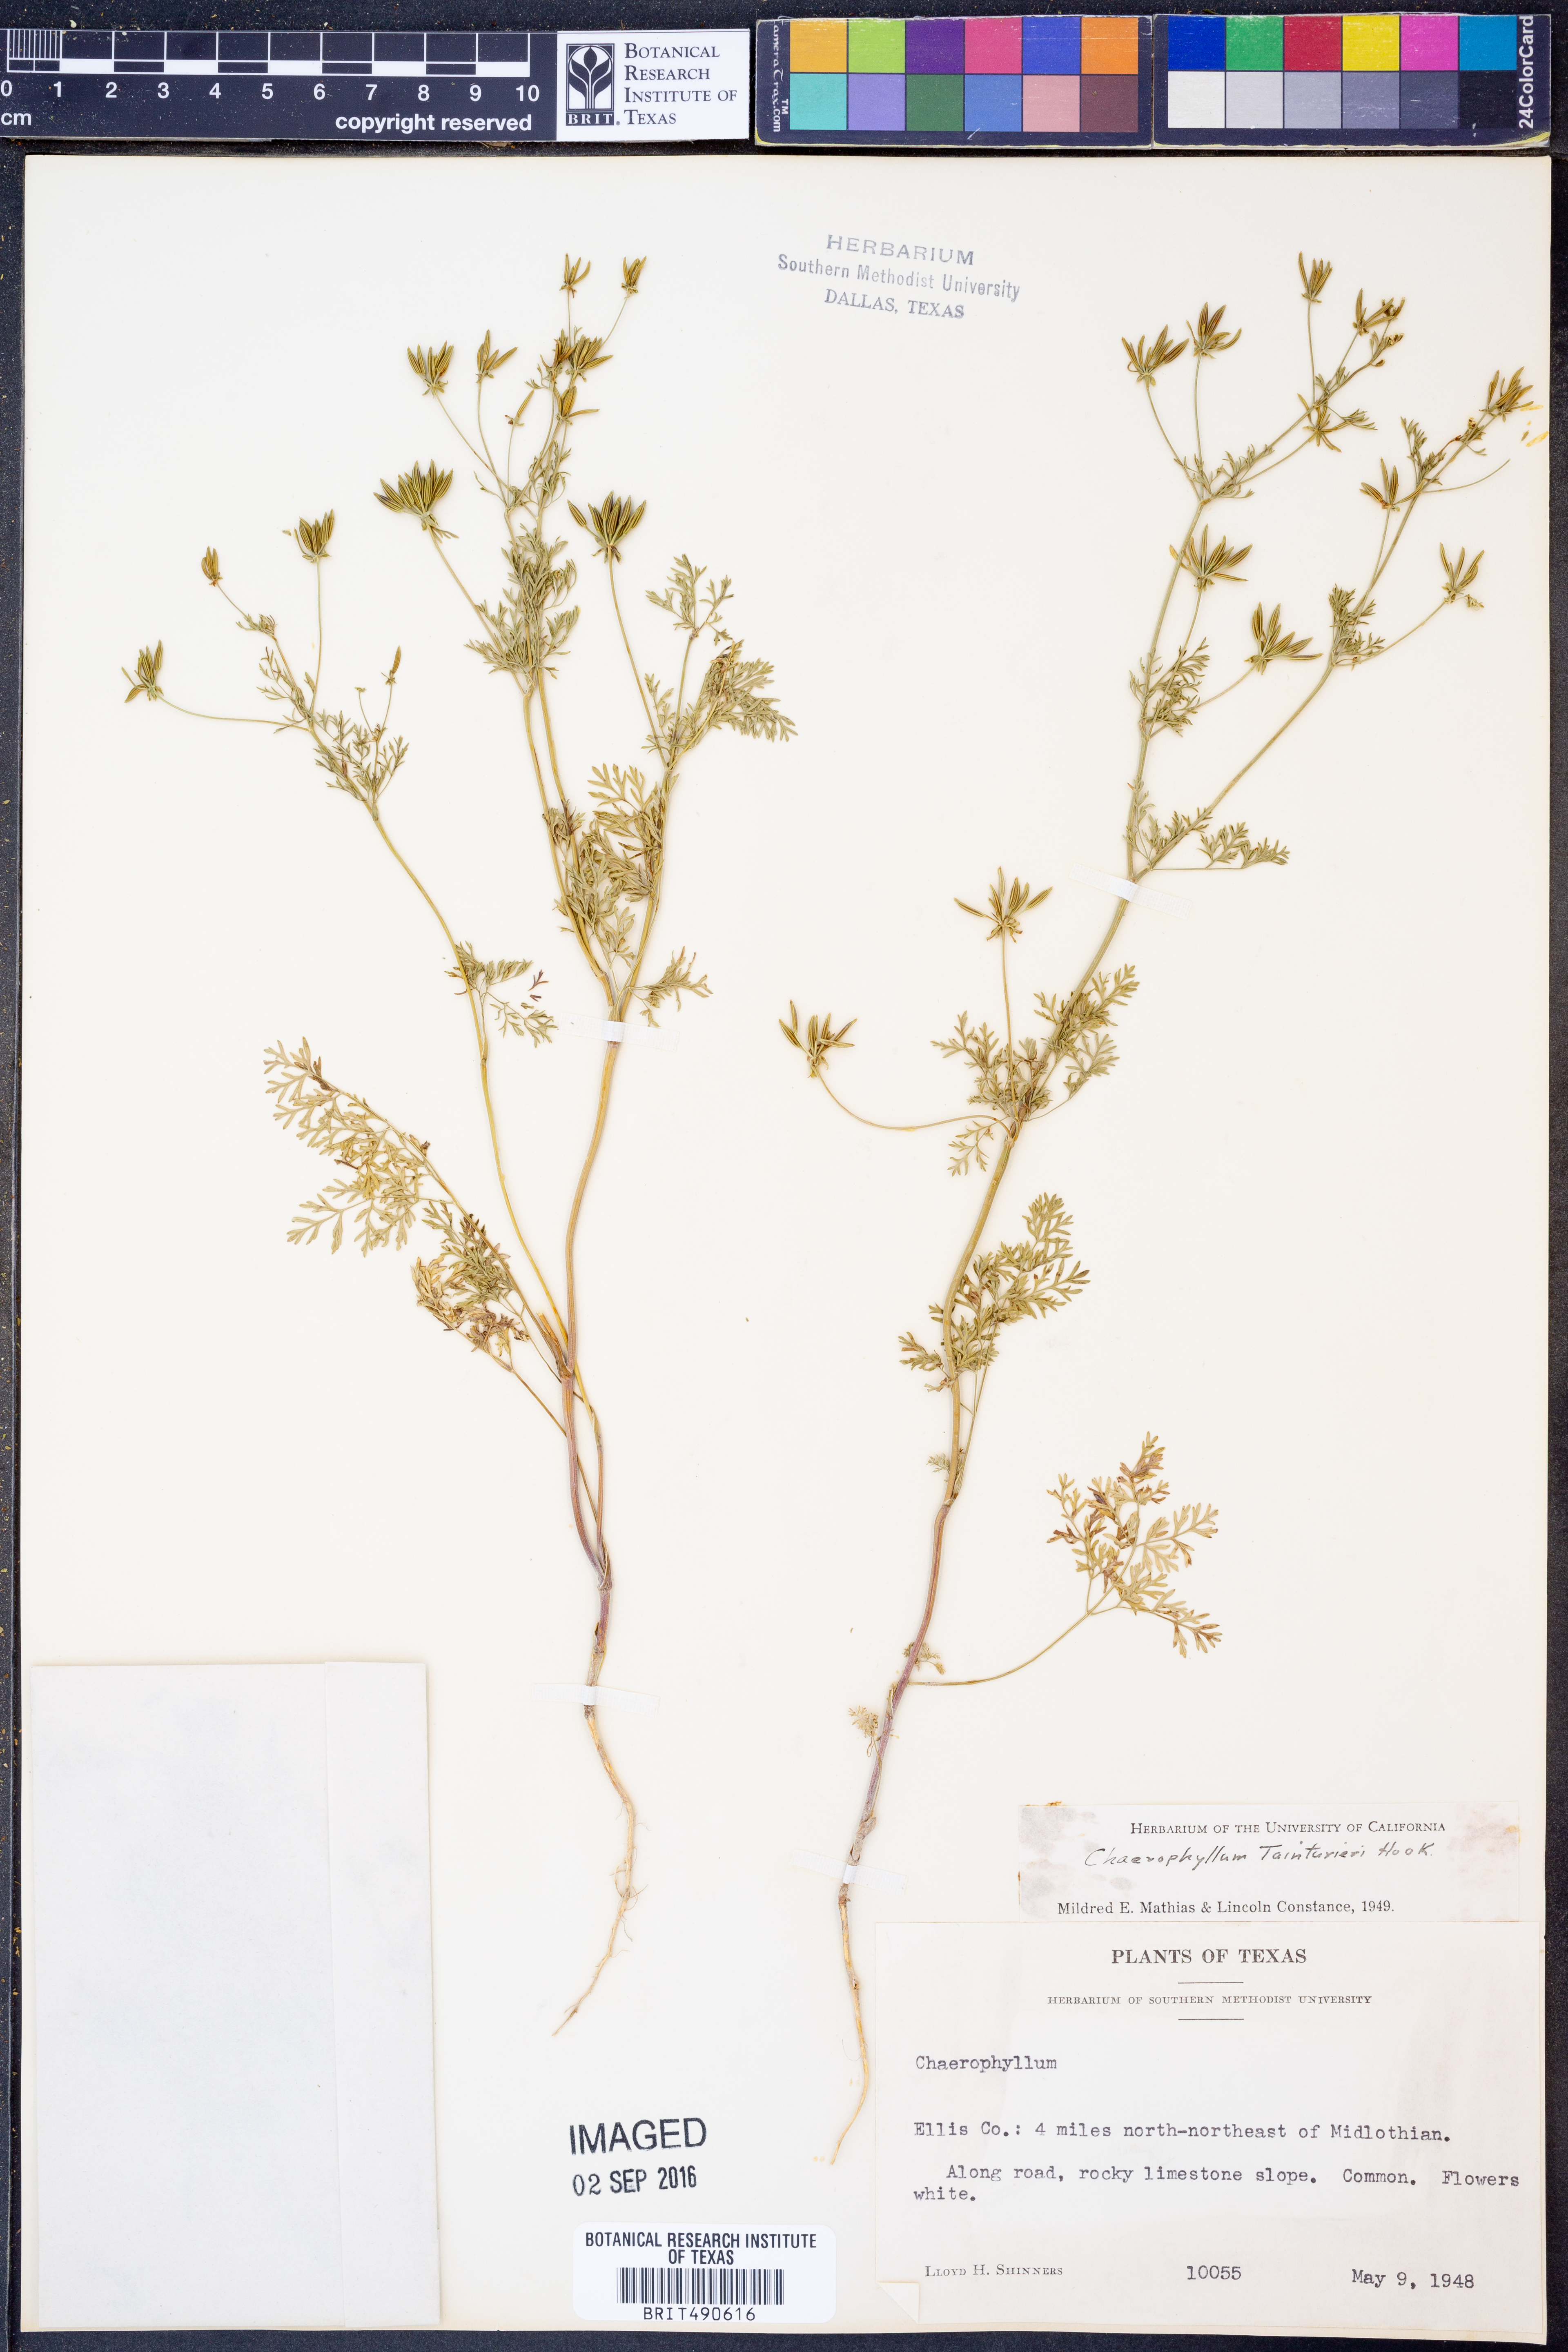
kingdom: Plantae
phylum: Tracheophyta
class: Magnoliopsida
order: Apiales
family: Apiaceae
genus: Chaerophyllum
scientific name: Chaerophyllum tainturieri
